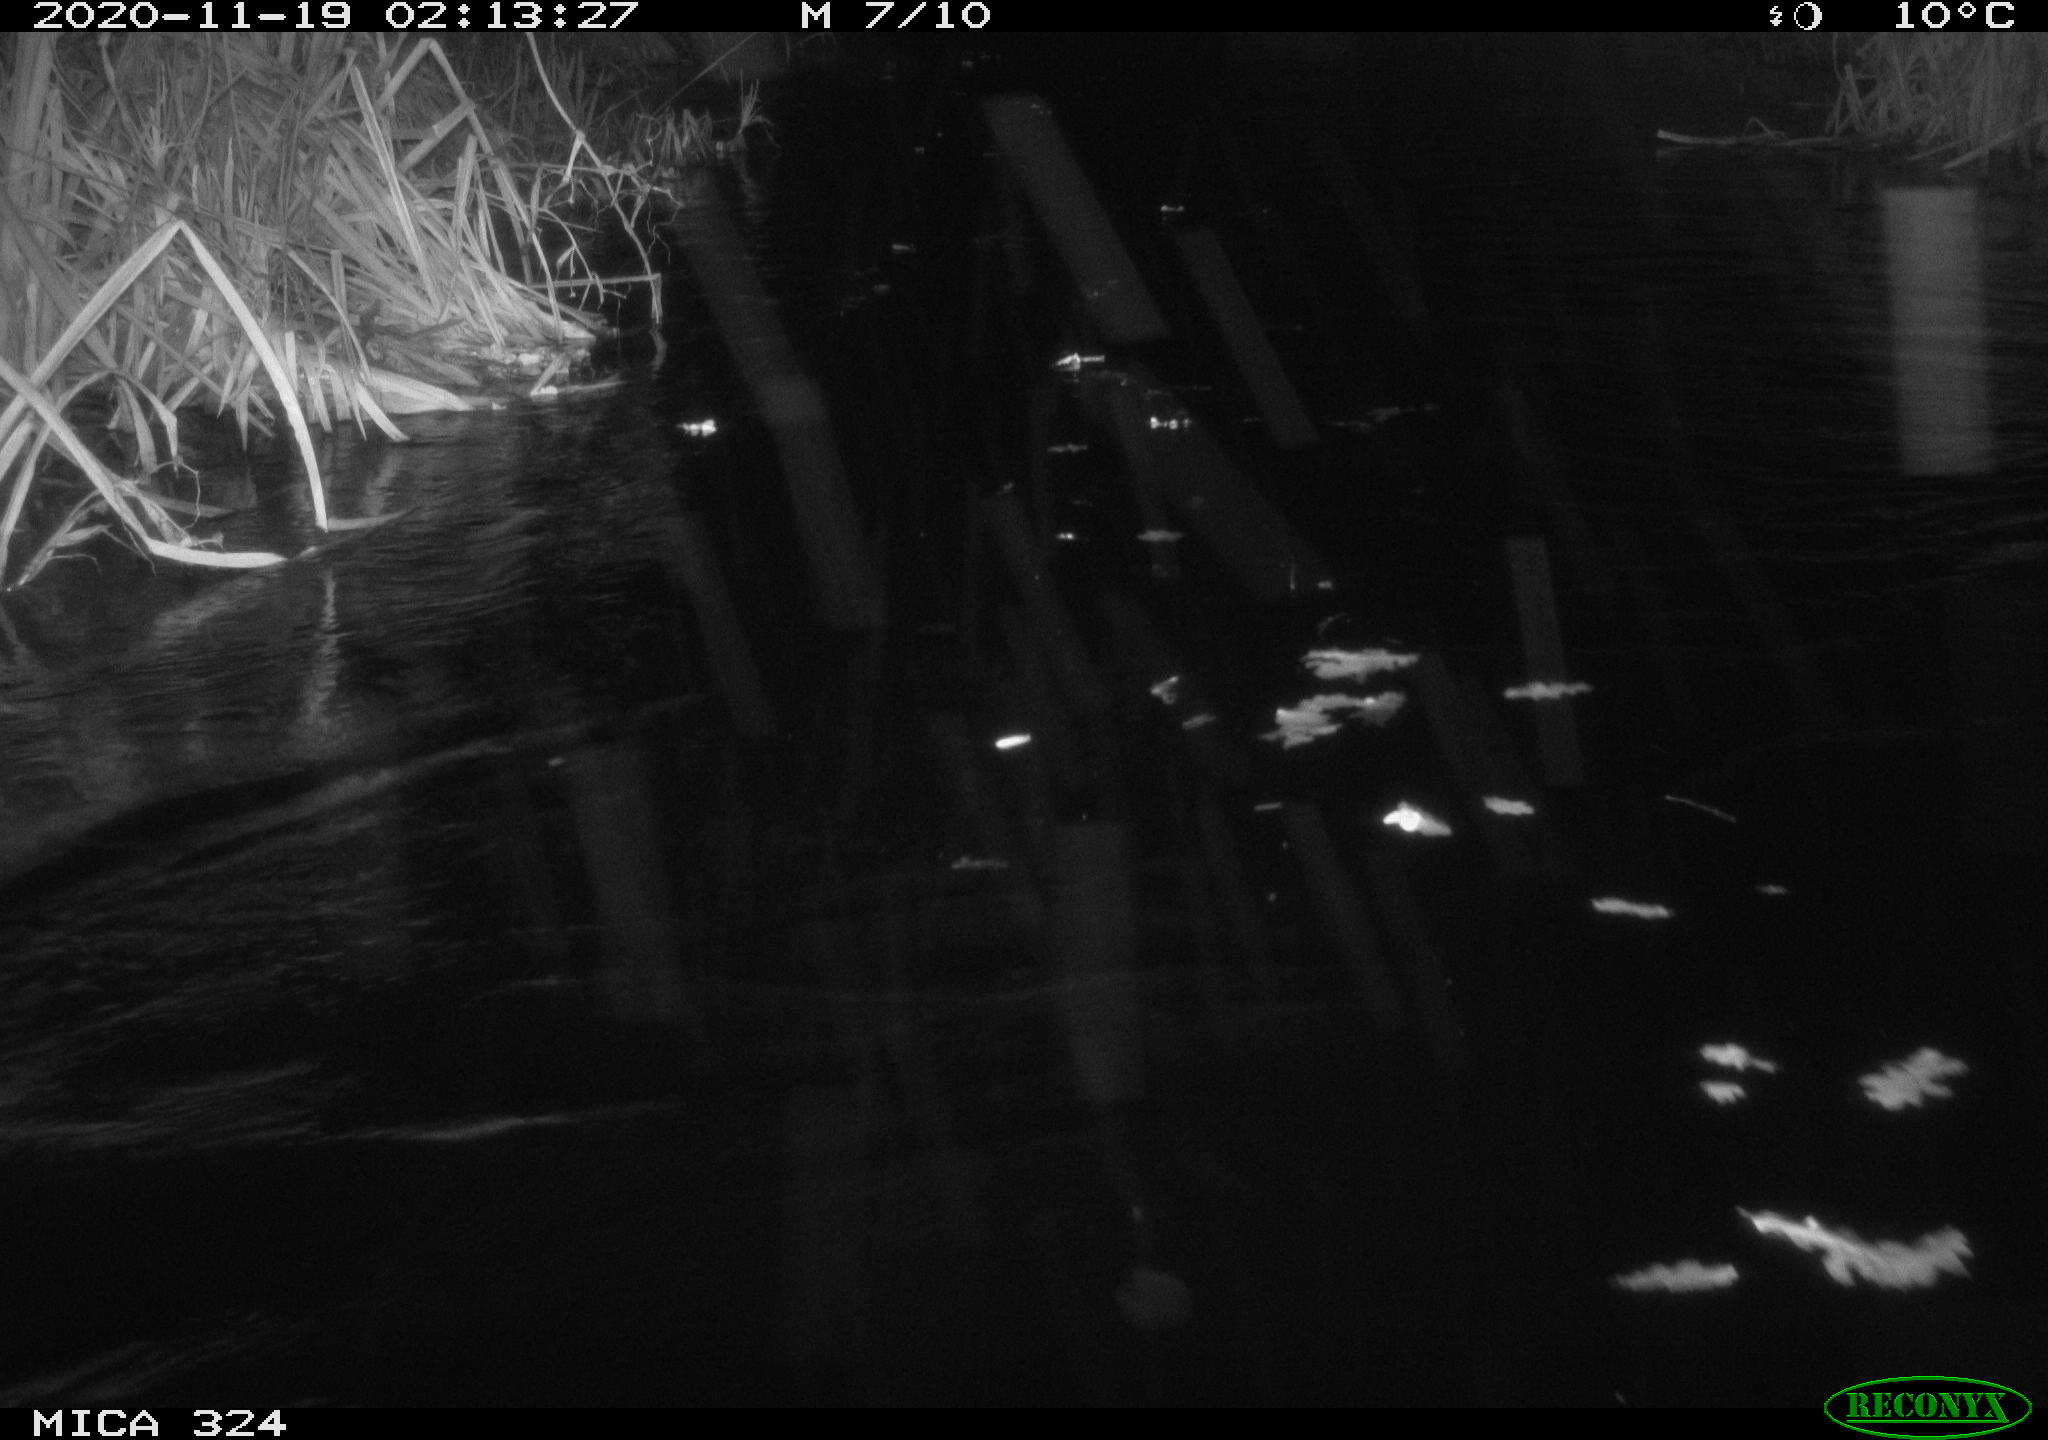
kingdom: Animalia
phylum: Chordata
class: Mammalia
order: Rodentia
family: Myocastoridae
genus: Myocastor
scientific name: Myocastor coypus
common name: Coypu
